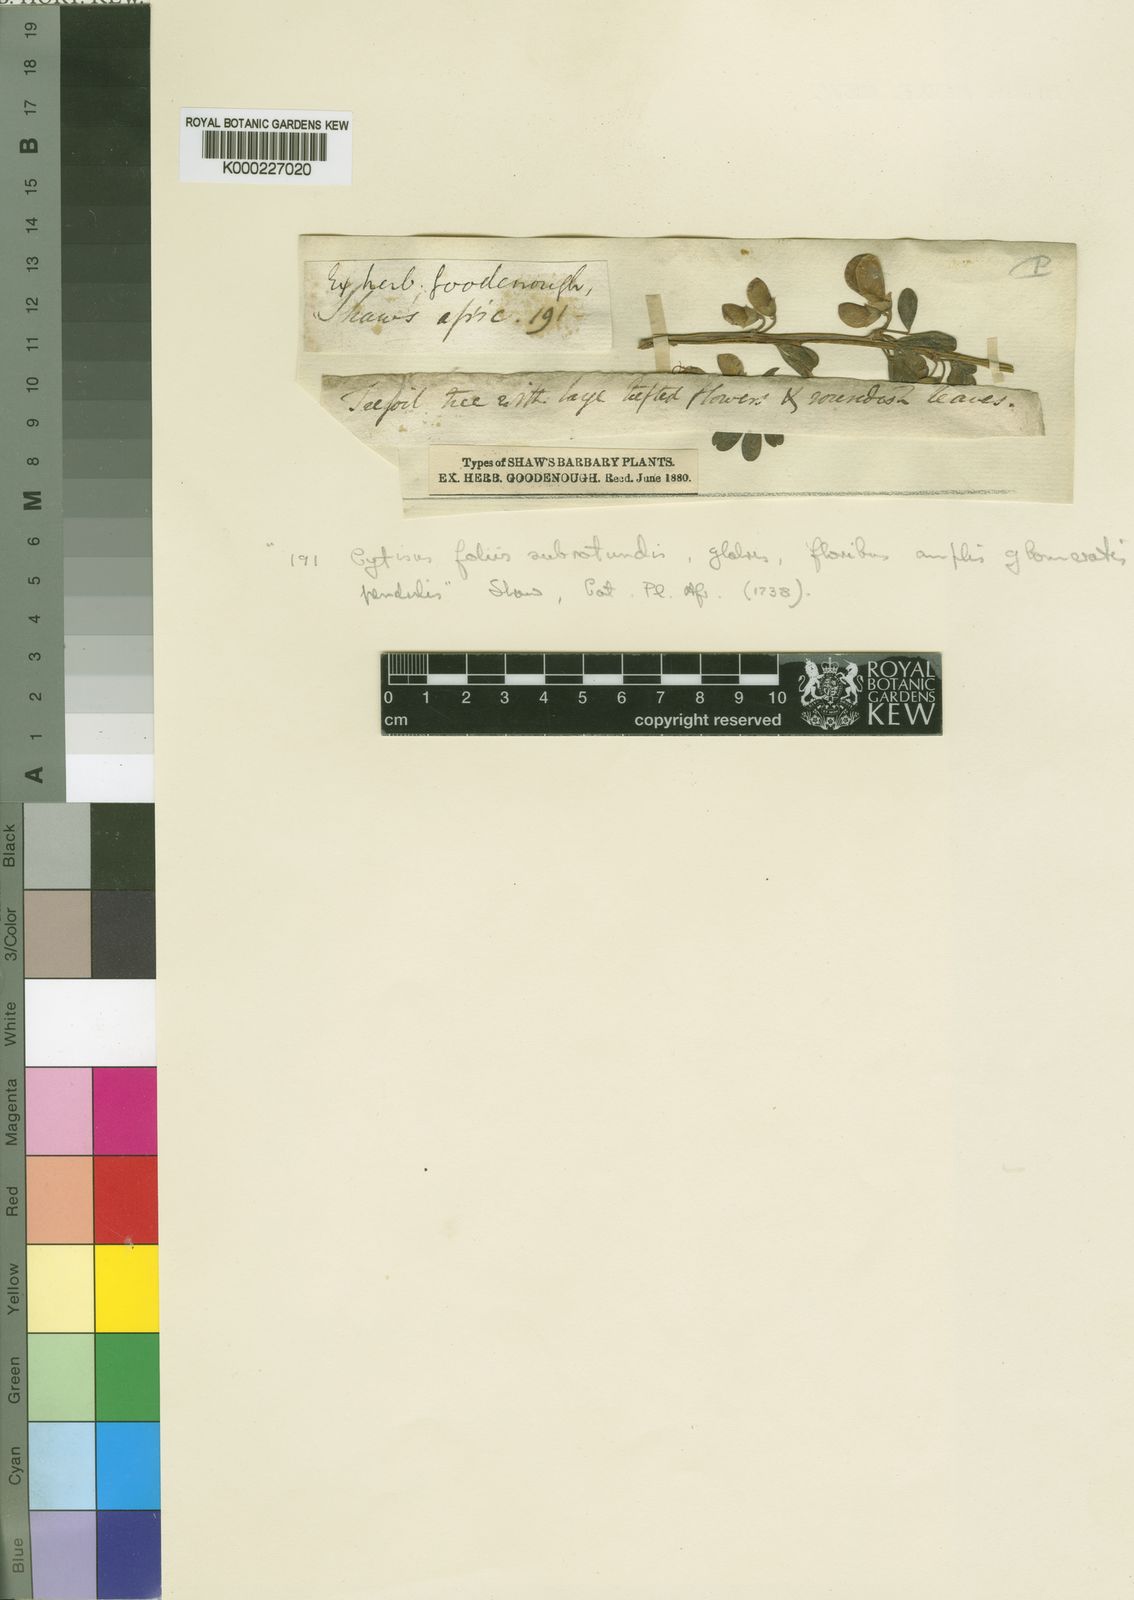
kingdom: Plantae
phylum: Tracheophyta
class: Magnoliopsida
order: Fabales
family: Fabaceae
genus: Cytisus
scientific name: Cytisus arboreus
